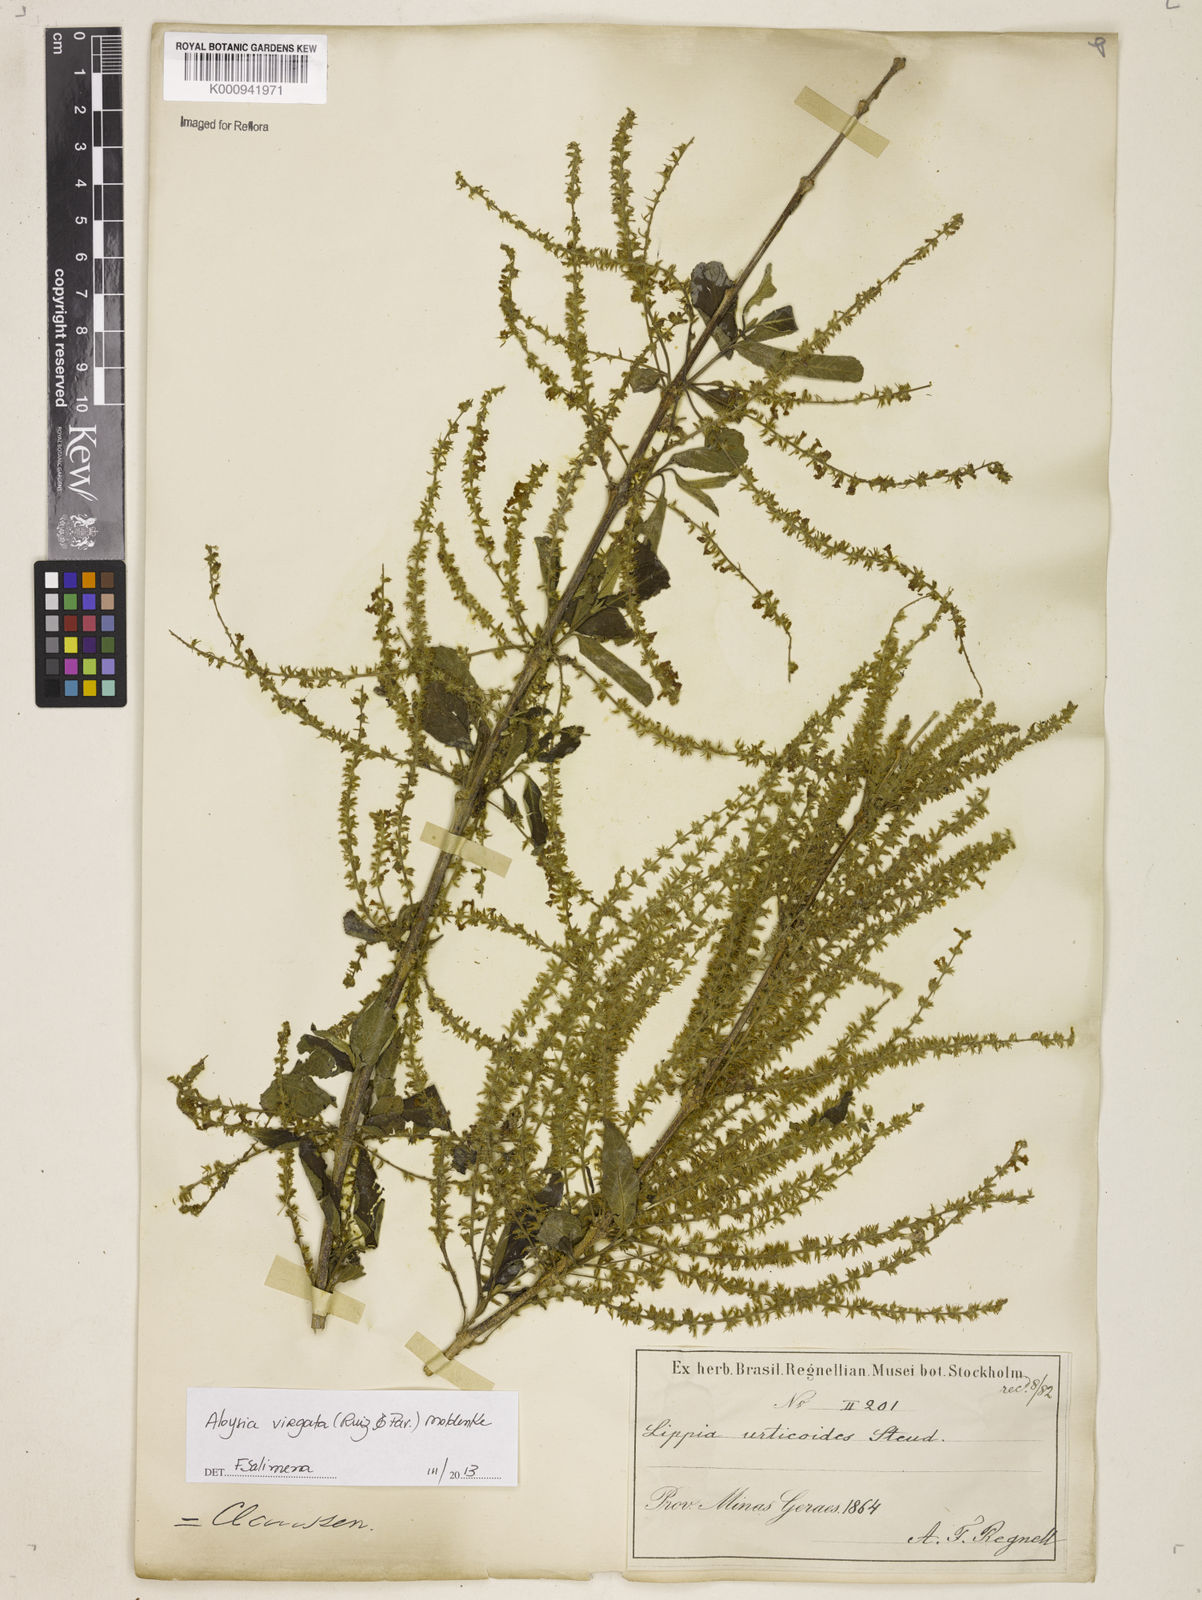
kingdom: Plantae
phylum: Tracheophyta
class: Magnoliopsida
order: Lamiales
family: Verbenaceae
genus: Aloysia
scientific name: Aloysia
